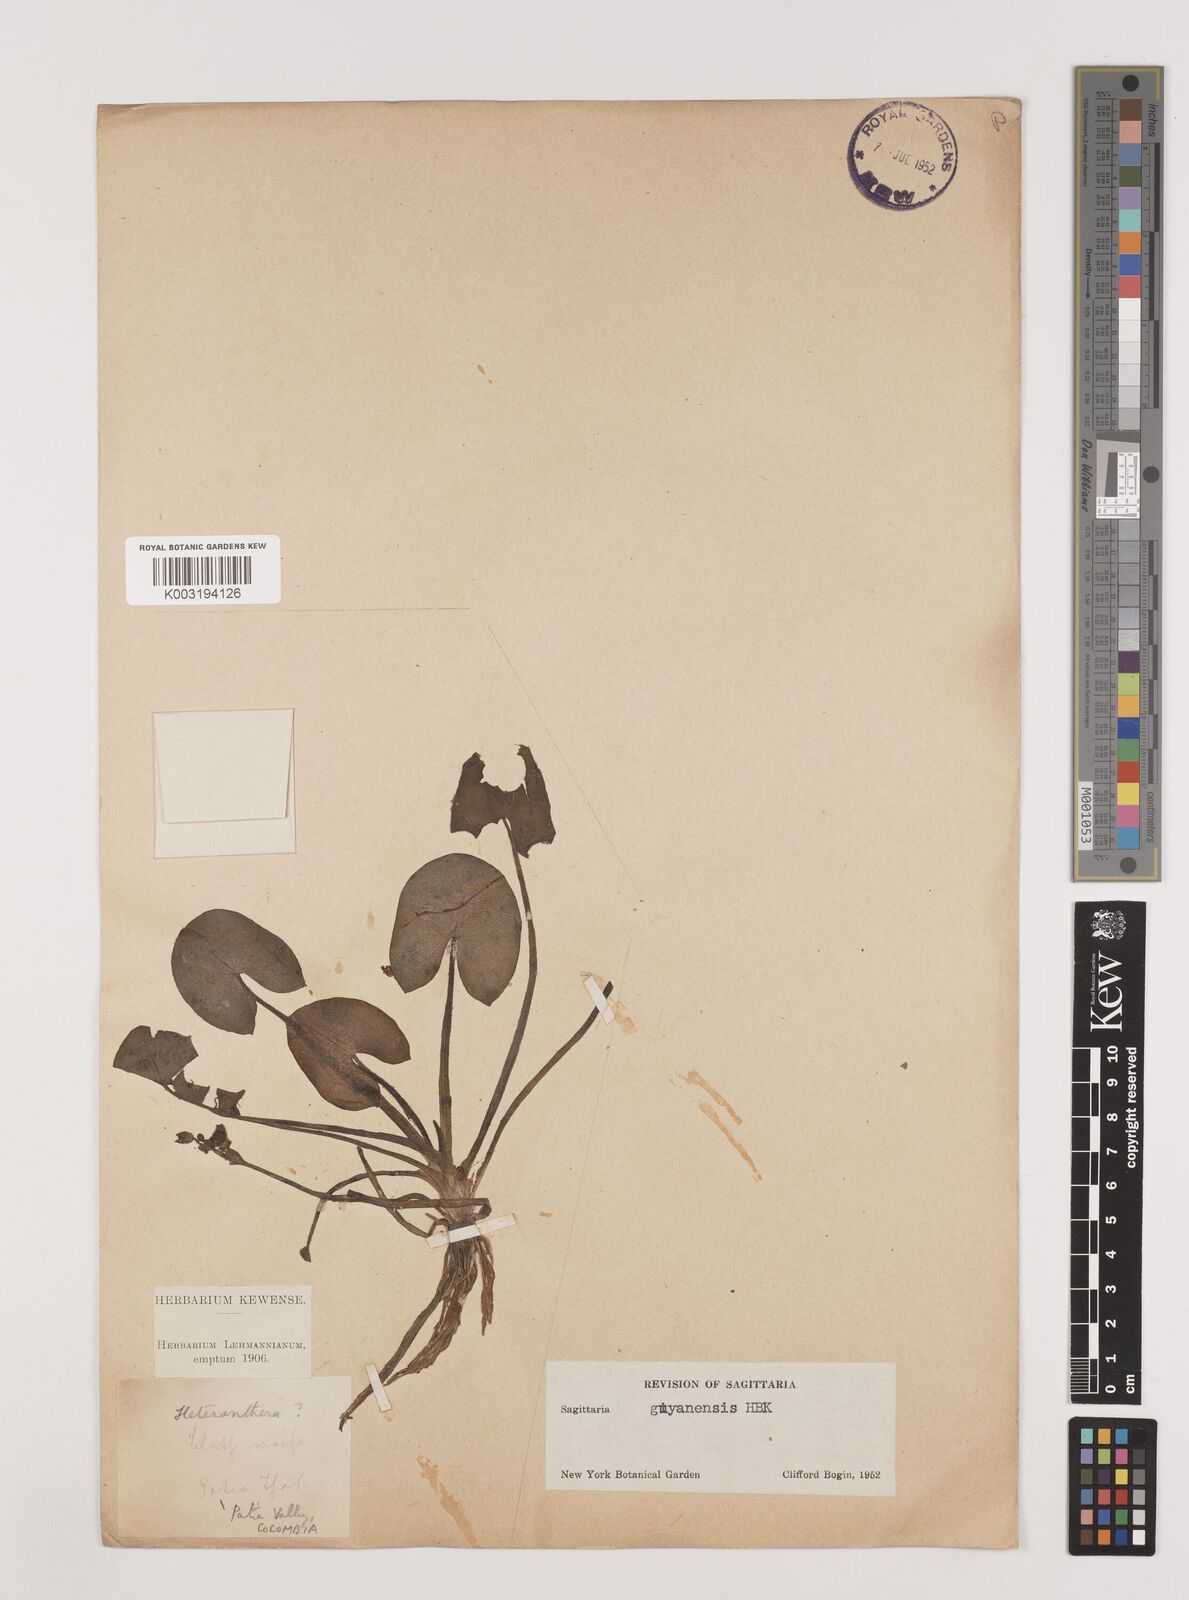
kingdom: Plantae
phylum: Tracheophyta
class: Liliopsida
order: Alismatales
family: Alismataceae
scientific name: Alismataceae
